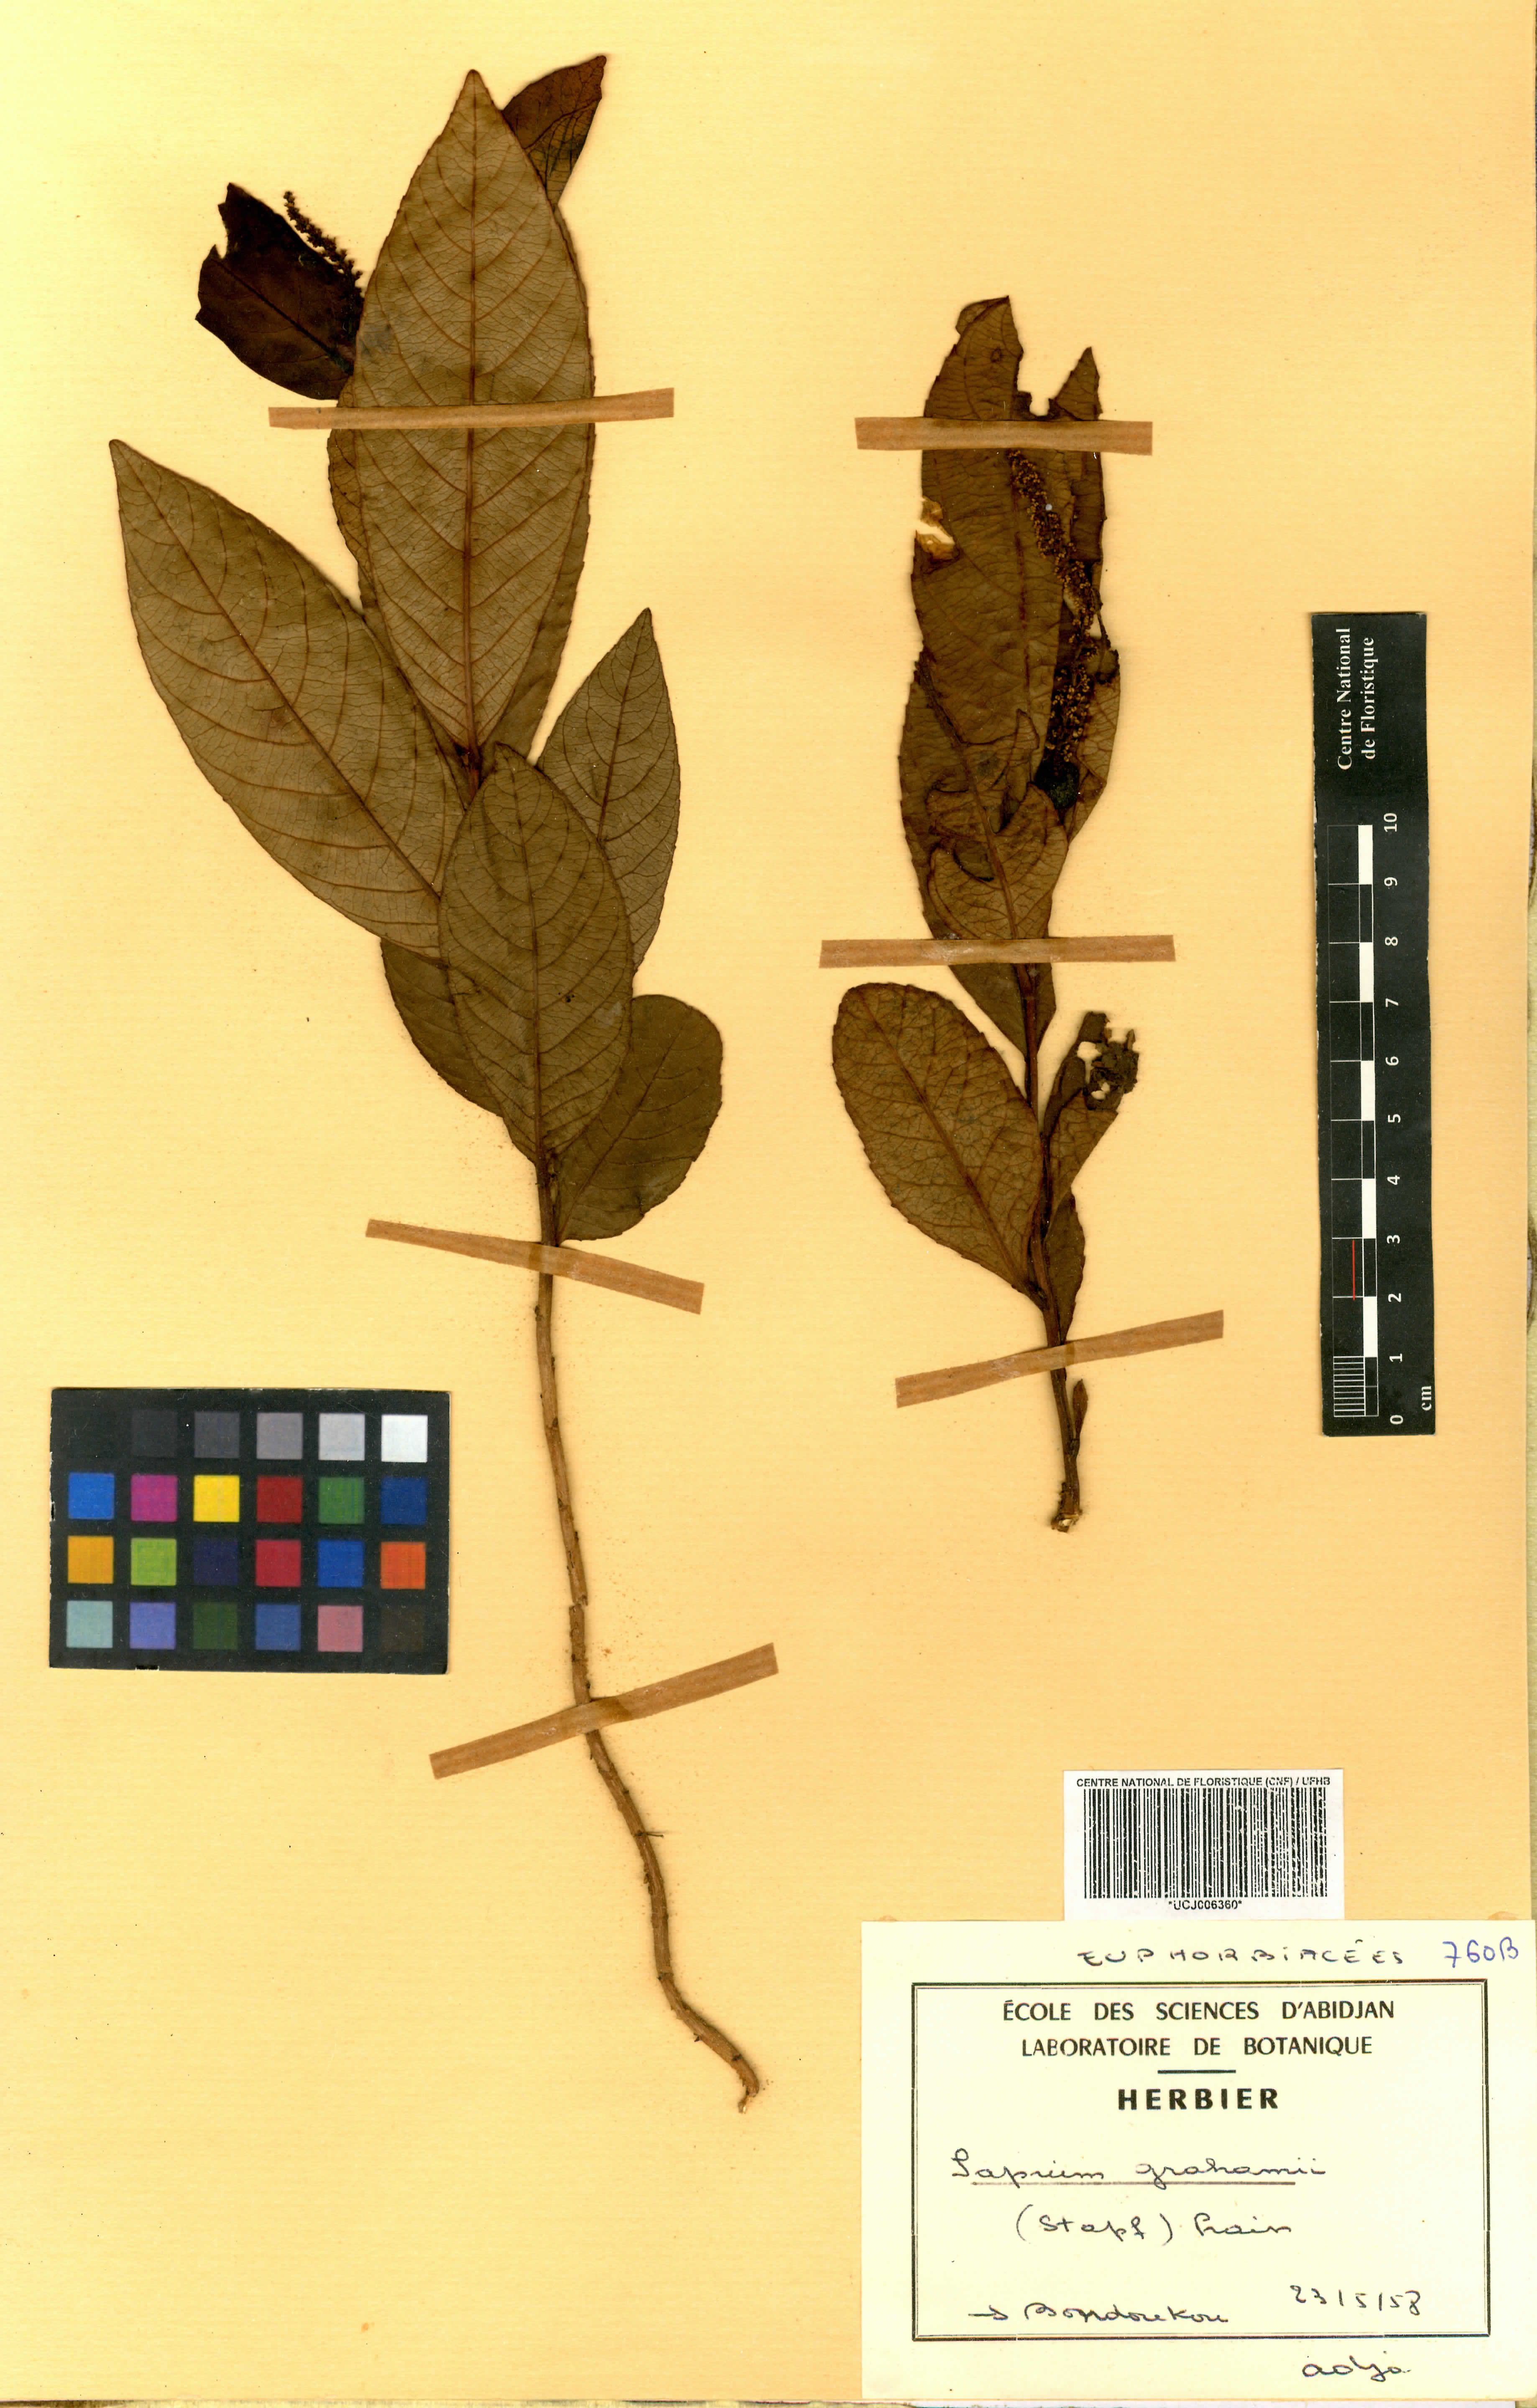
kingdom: Plantae
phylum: Tracheophyta
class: Magnoliopsida
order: Malpighiales
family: Euphorbiaceae
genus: Excoecaria
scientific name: Excoecaria grahamii
